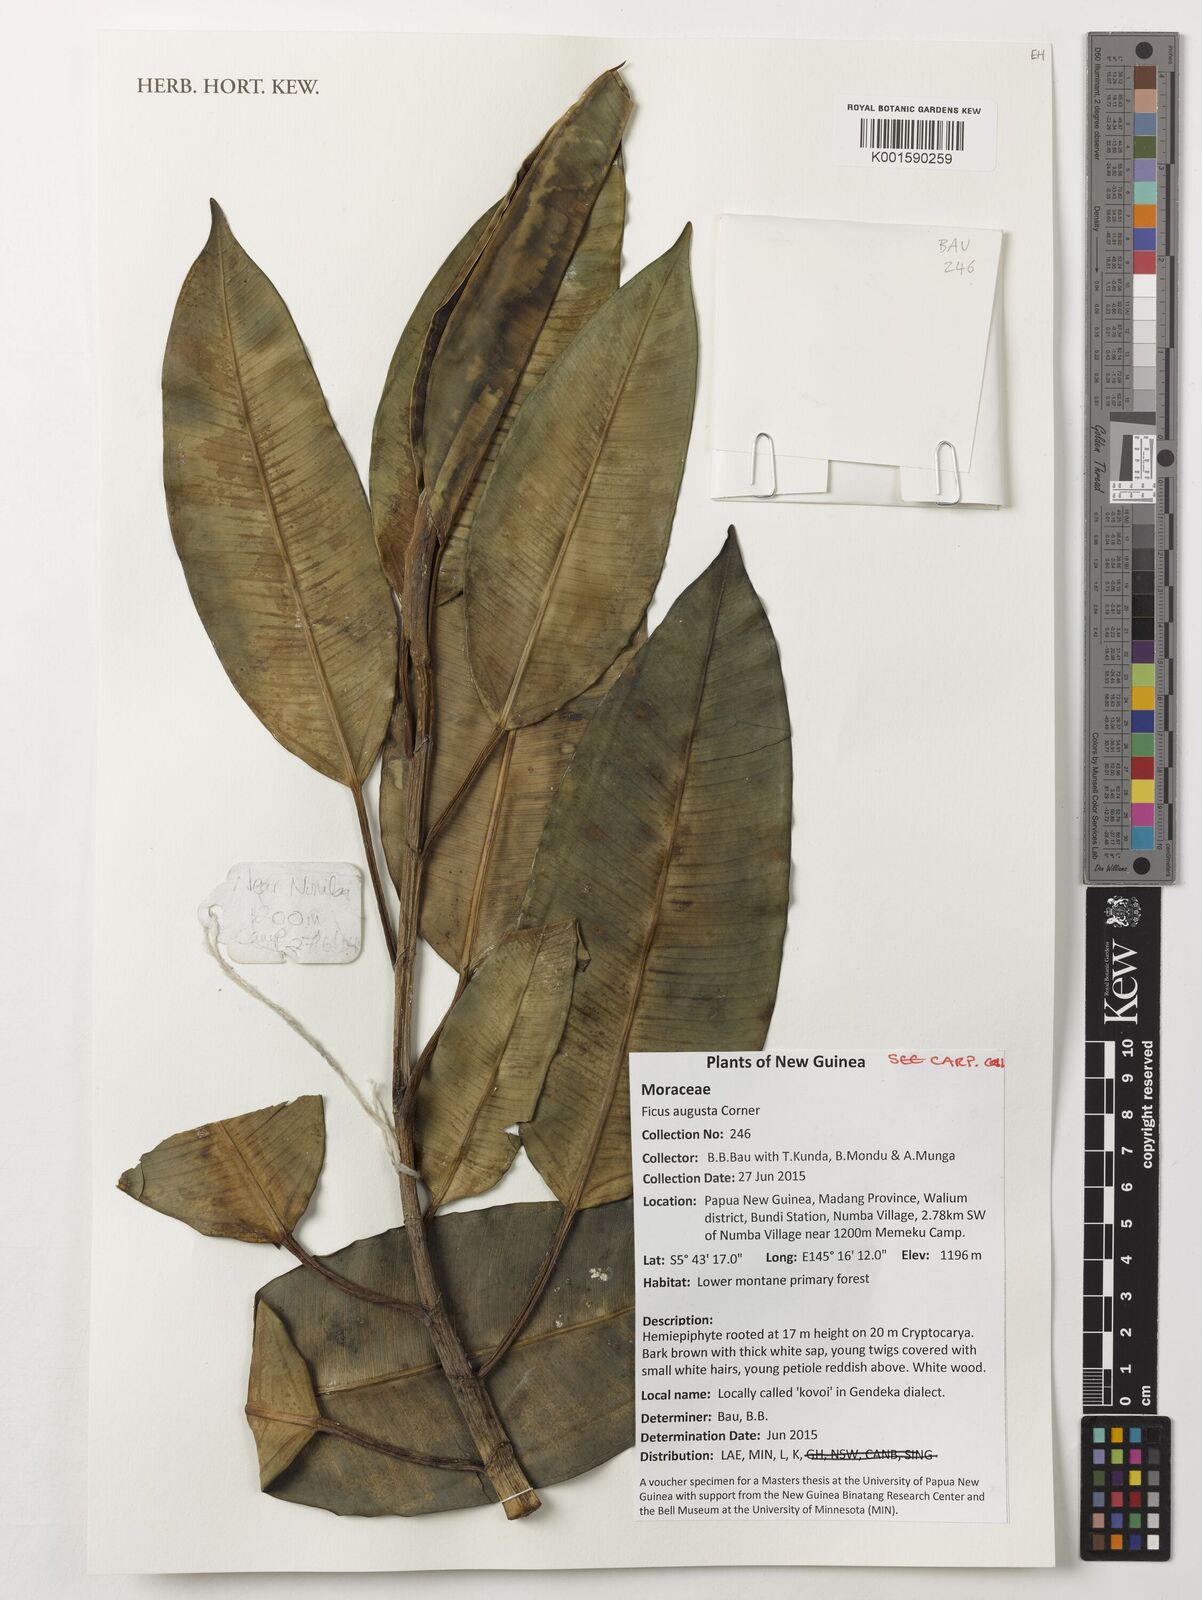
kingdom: Plantae
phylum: Tracheophyta
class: Magnoliopsida
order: Rosales
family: Moraceae
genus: Ficus
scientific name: Ficus hesperidiiformis
